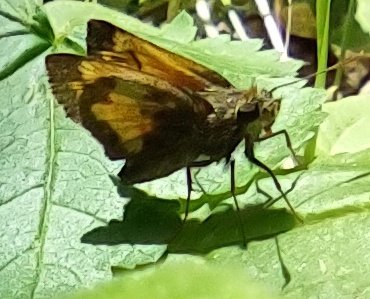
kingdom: Animalia
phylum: Arthropoda
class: Insecta
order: Lepidoptera
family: Hesperiidae
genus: Lon
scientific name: Lon hobomok
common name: Hobomok Skipper
